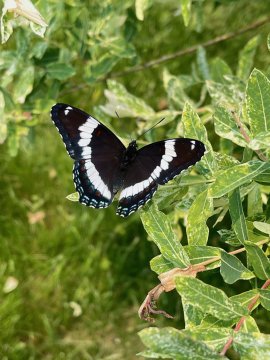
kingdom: Animalia
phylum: Arthropoda
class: Insecta
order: Lepidoptera
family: Nymphalidae
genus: Limenitis
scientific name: Limenitis arthemis
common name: Red-spotted Admiral
